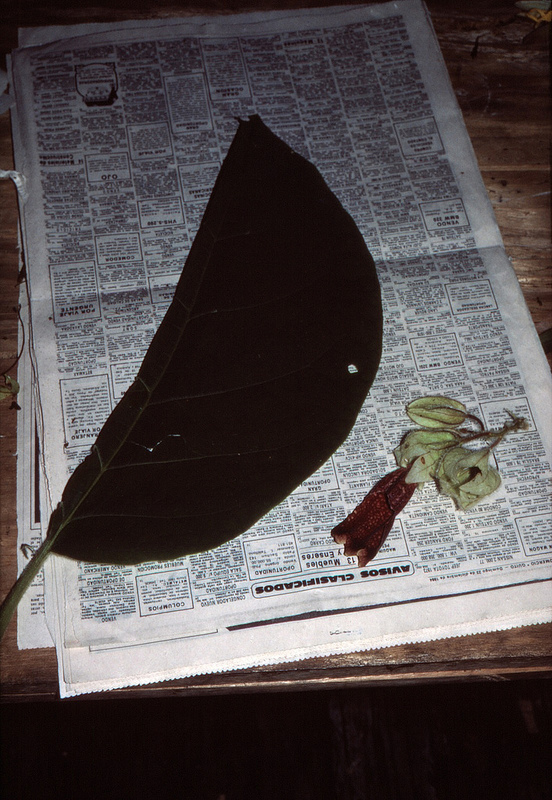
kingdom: Plantae
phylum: Tracheophyta
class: Magnoliopsida
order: Solanales
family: Solanaceae
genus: Markea
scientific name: Markea pilosa
